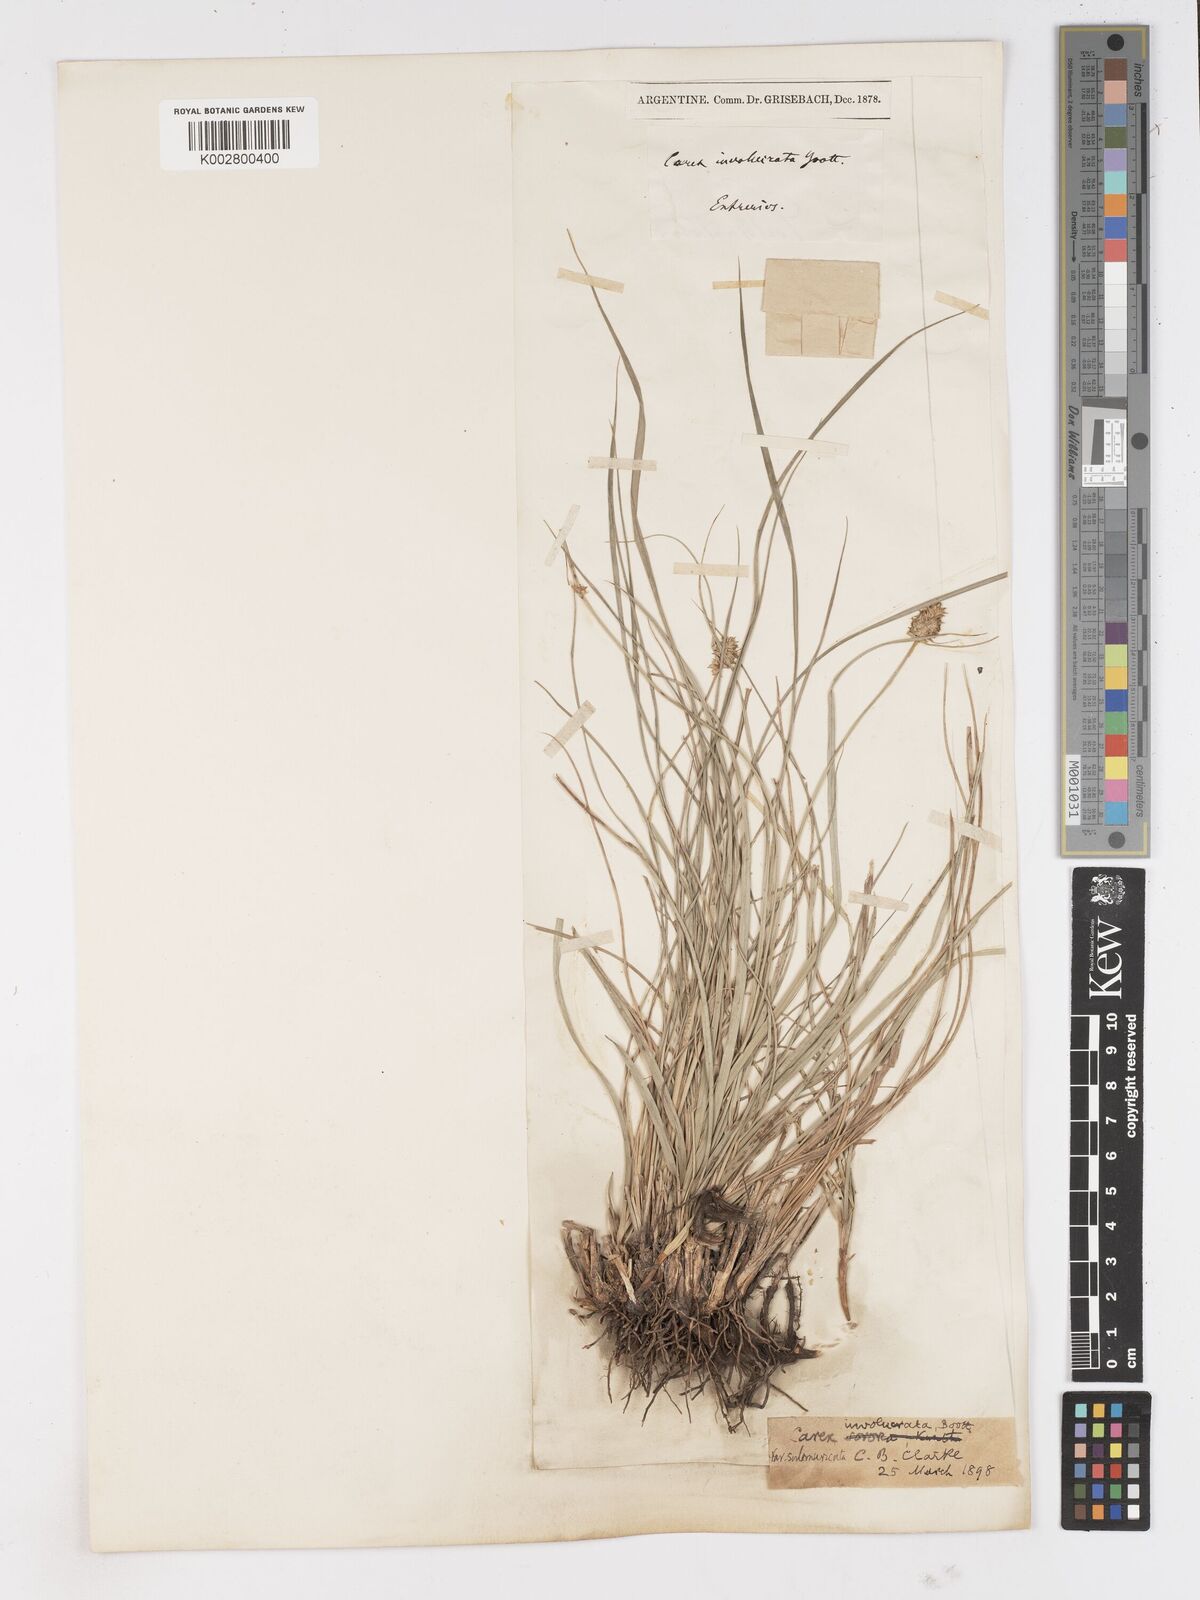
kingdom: Plantae
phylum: Tracheophyta
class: Liliopsida
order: Poales
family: Cyperaceae
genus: Carex
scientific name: Carex sororia
